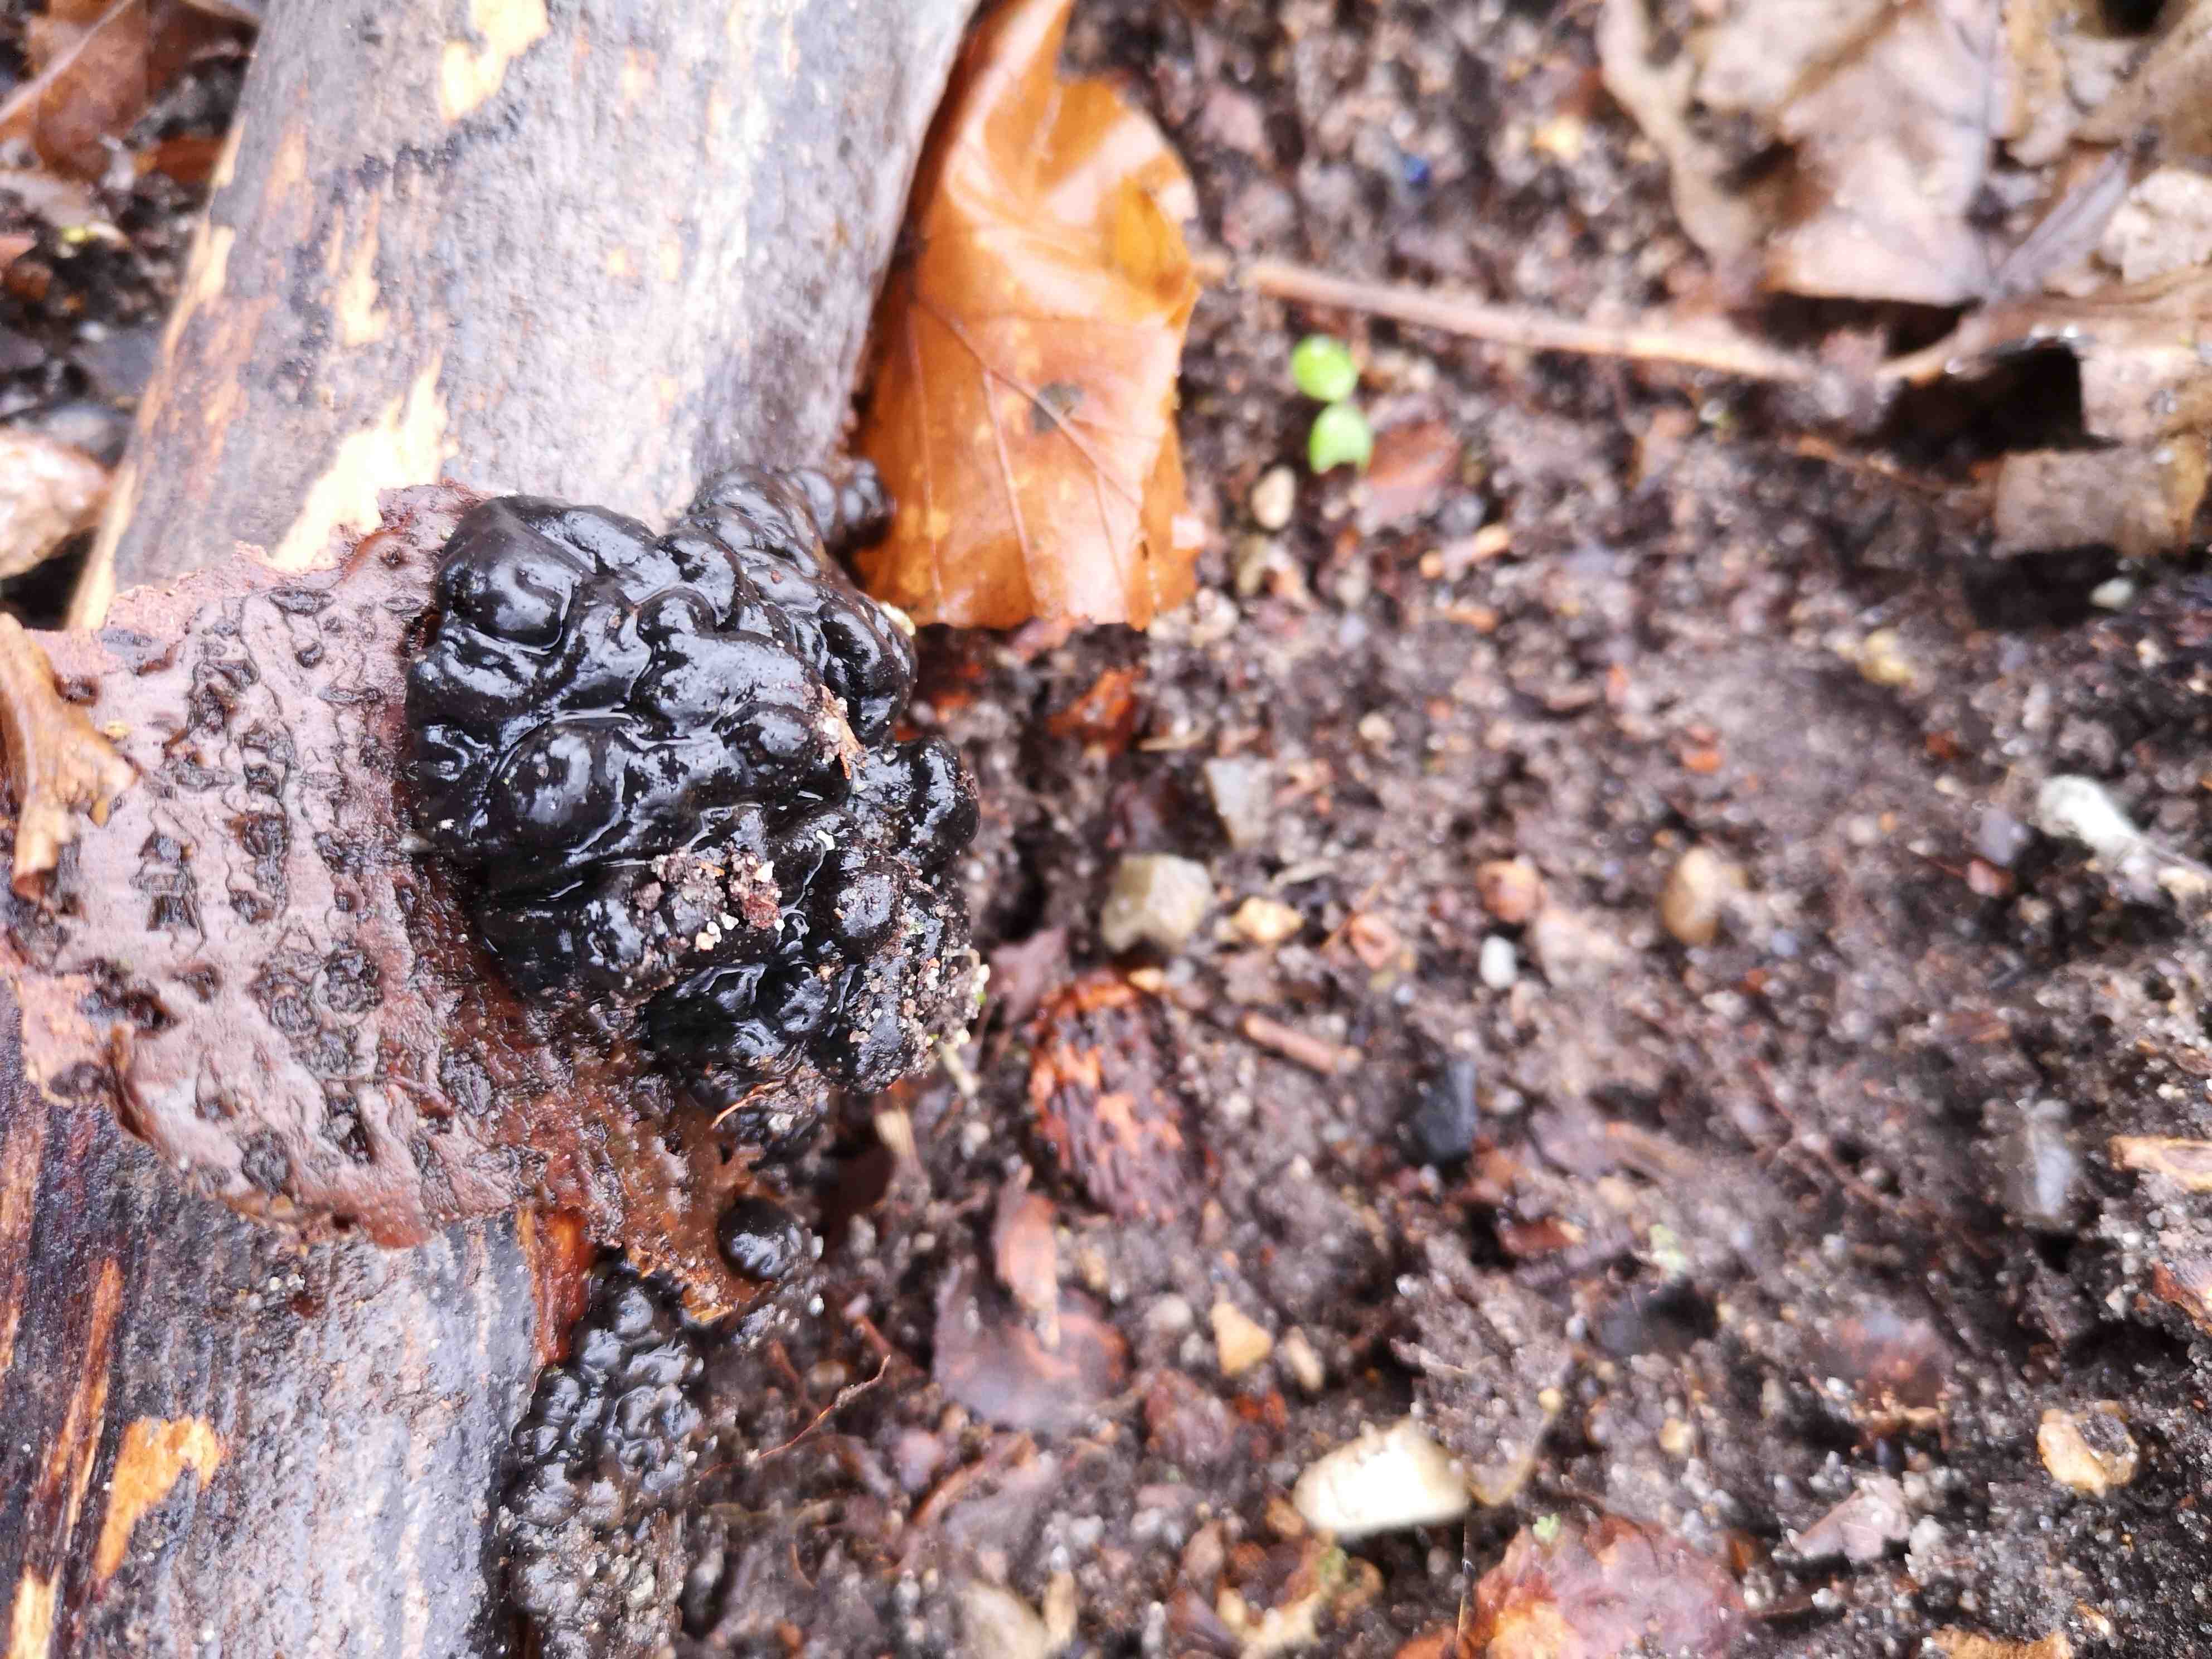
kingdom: Fungi
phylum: Basidiomycota
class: Agaricomycetes
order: Auriculariales
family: Auriculariaceae
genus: Exidia
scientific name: Exidia nigricans
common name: almindelig bævretop
